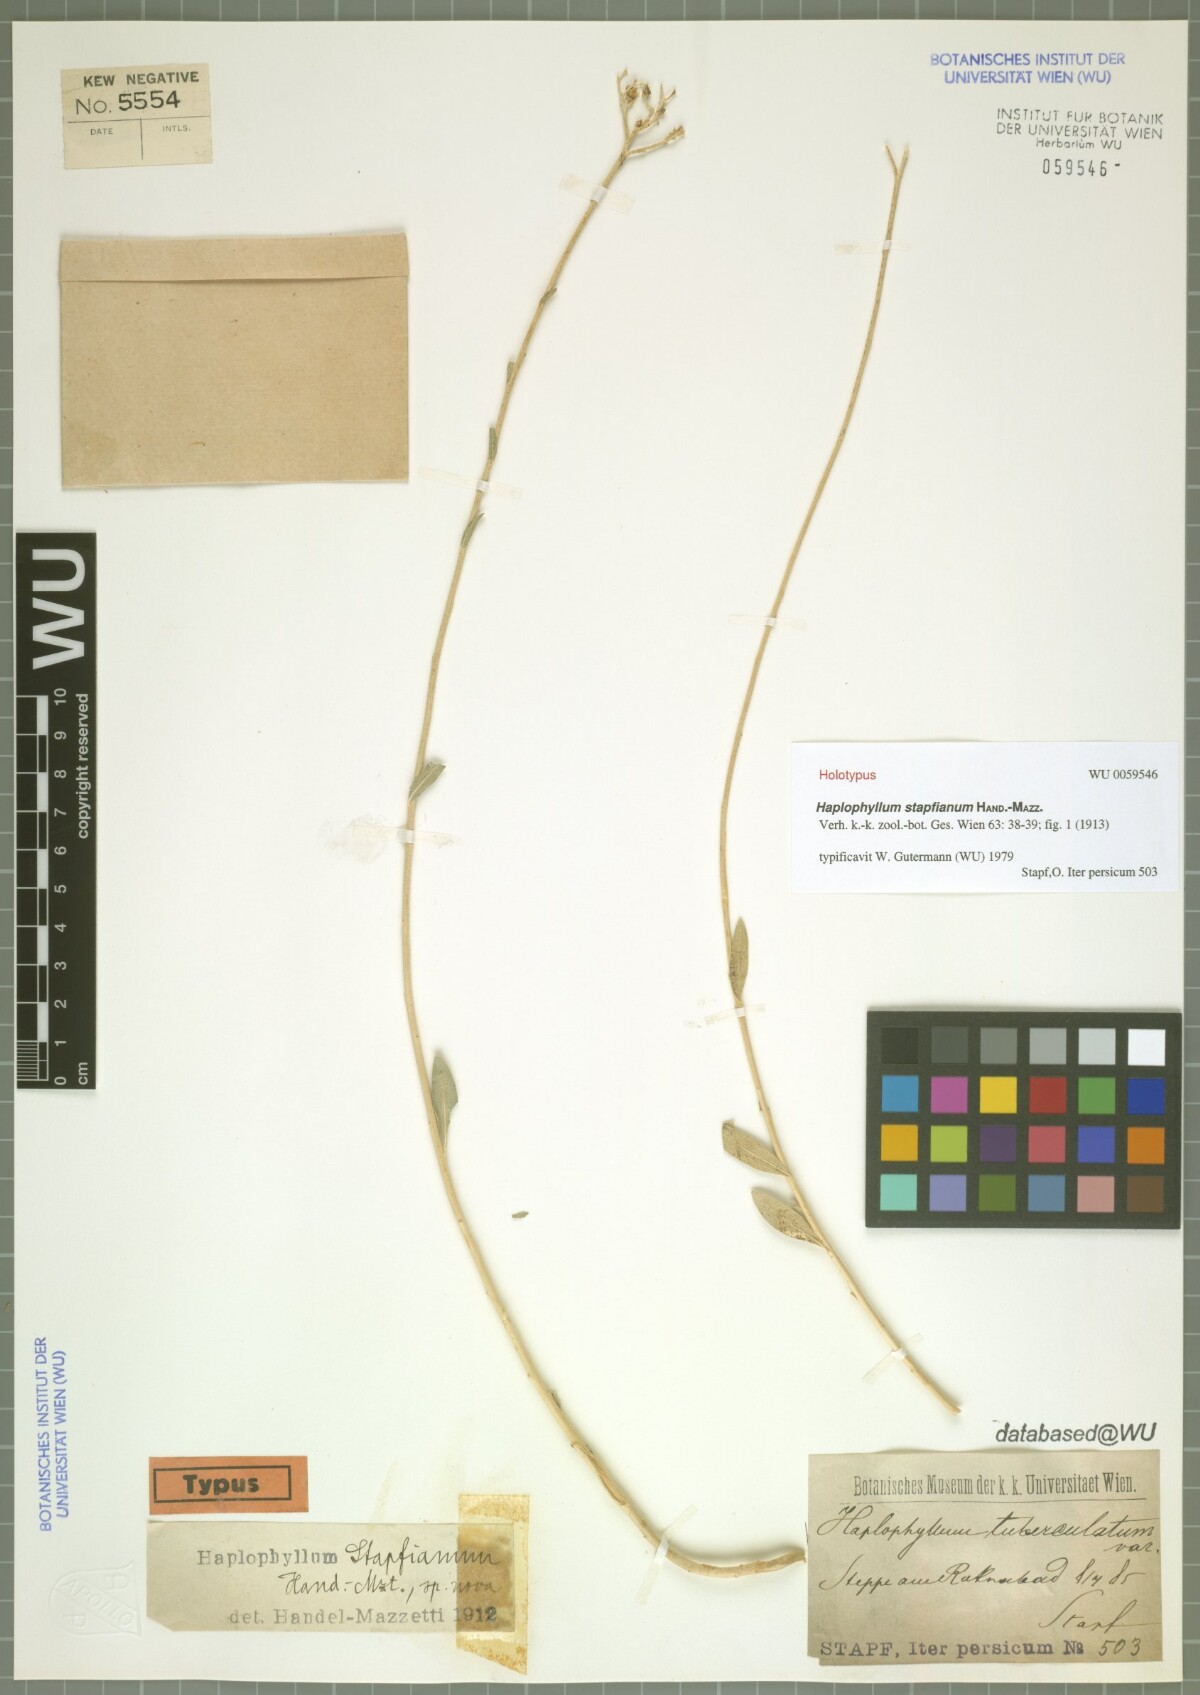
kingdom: Plantae
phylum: Tracheophyta
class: Magnoliopsida
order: Sapindales
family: Rutaceae
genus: Haplophyllum
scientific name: Haplophyllum stapfianum
